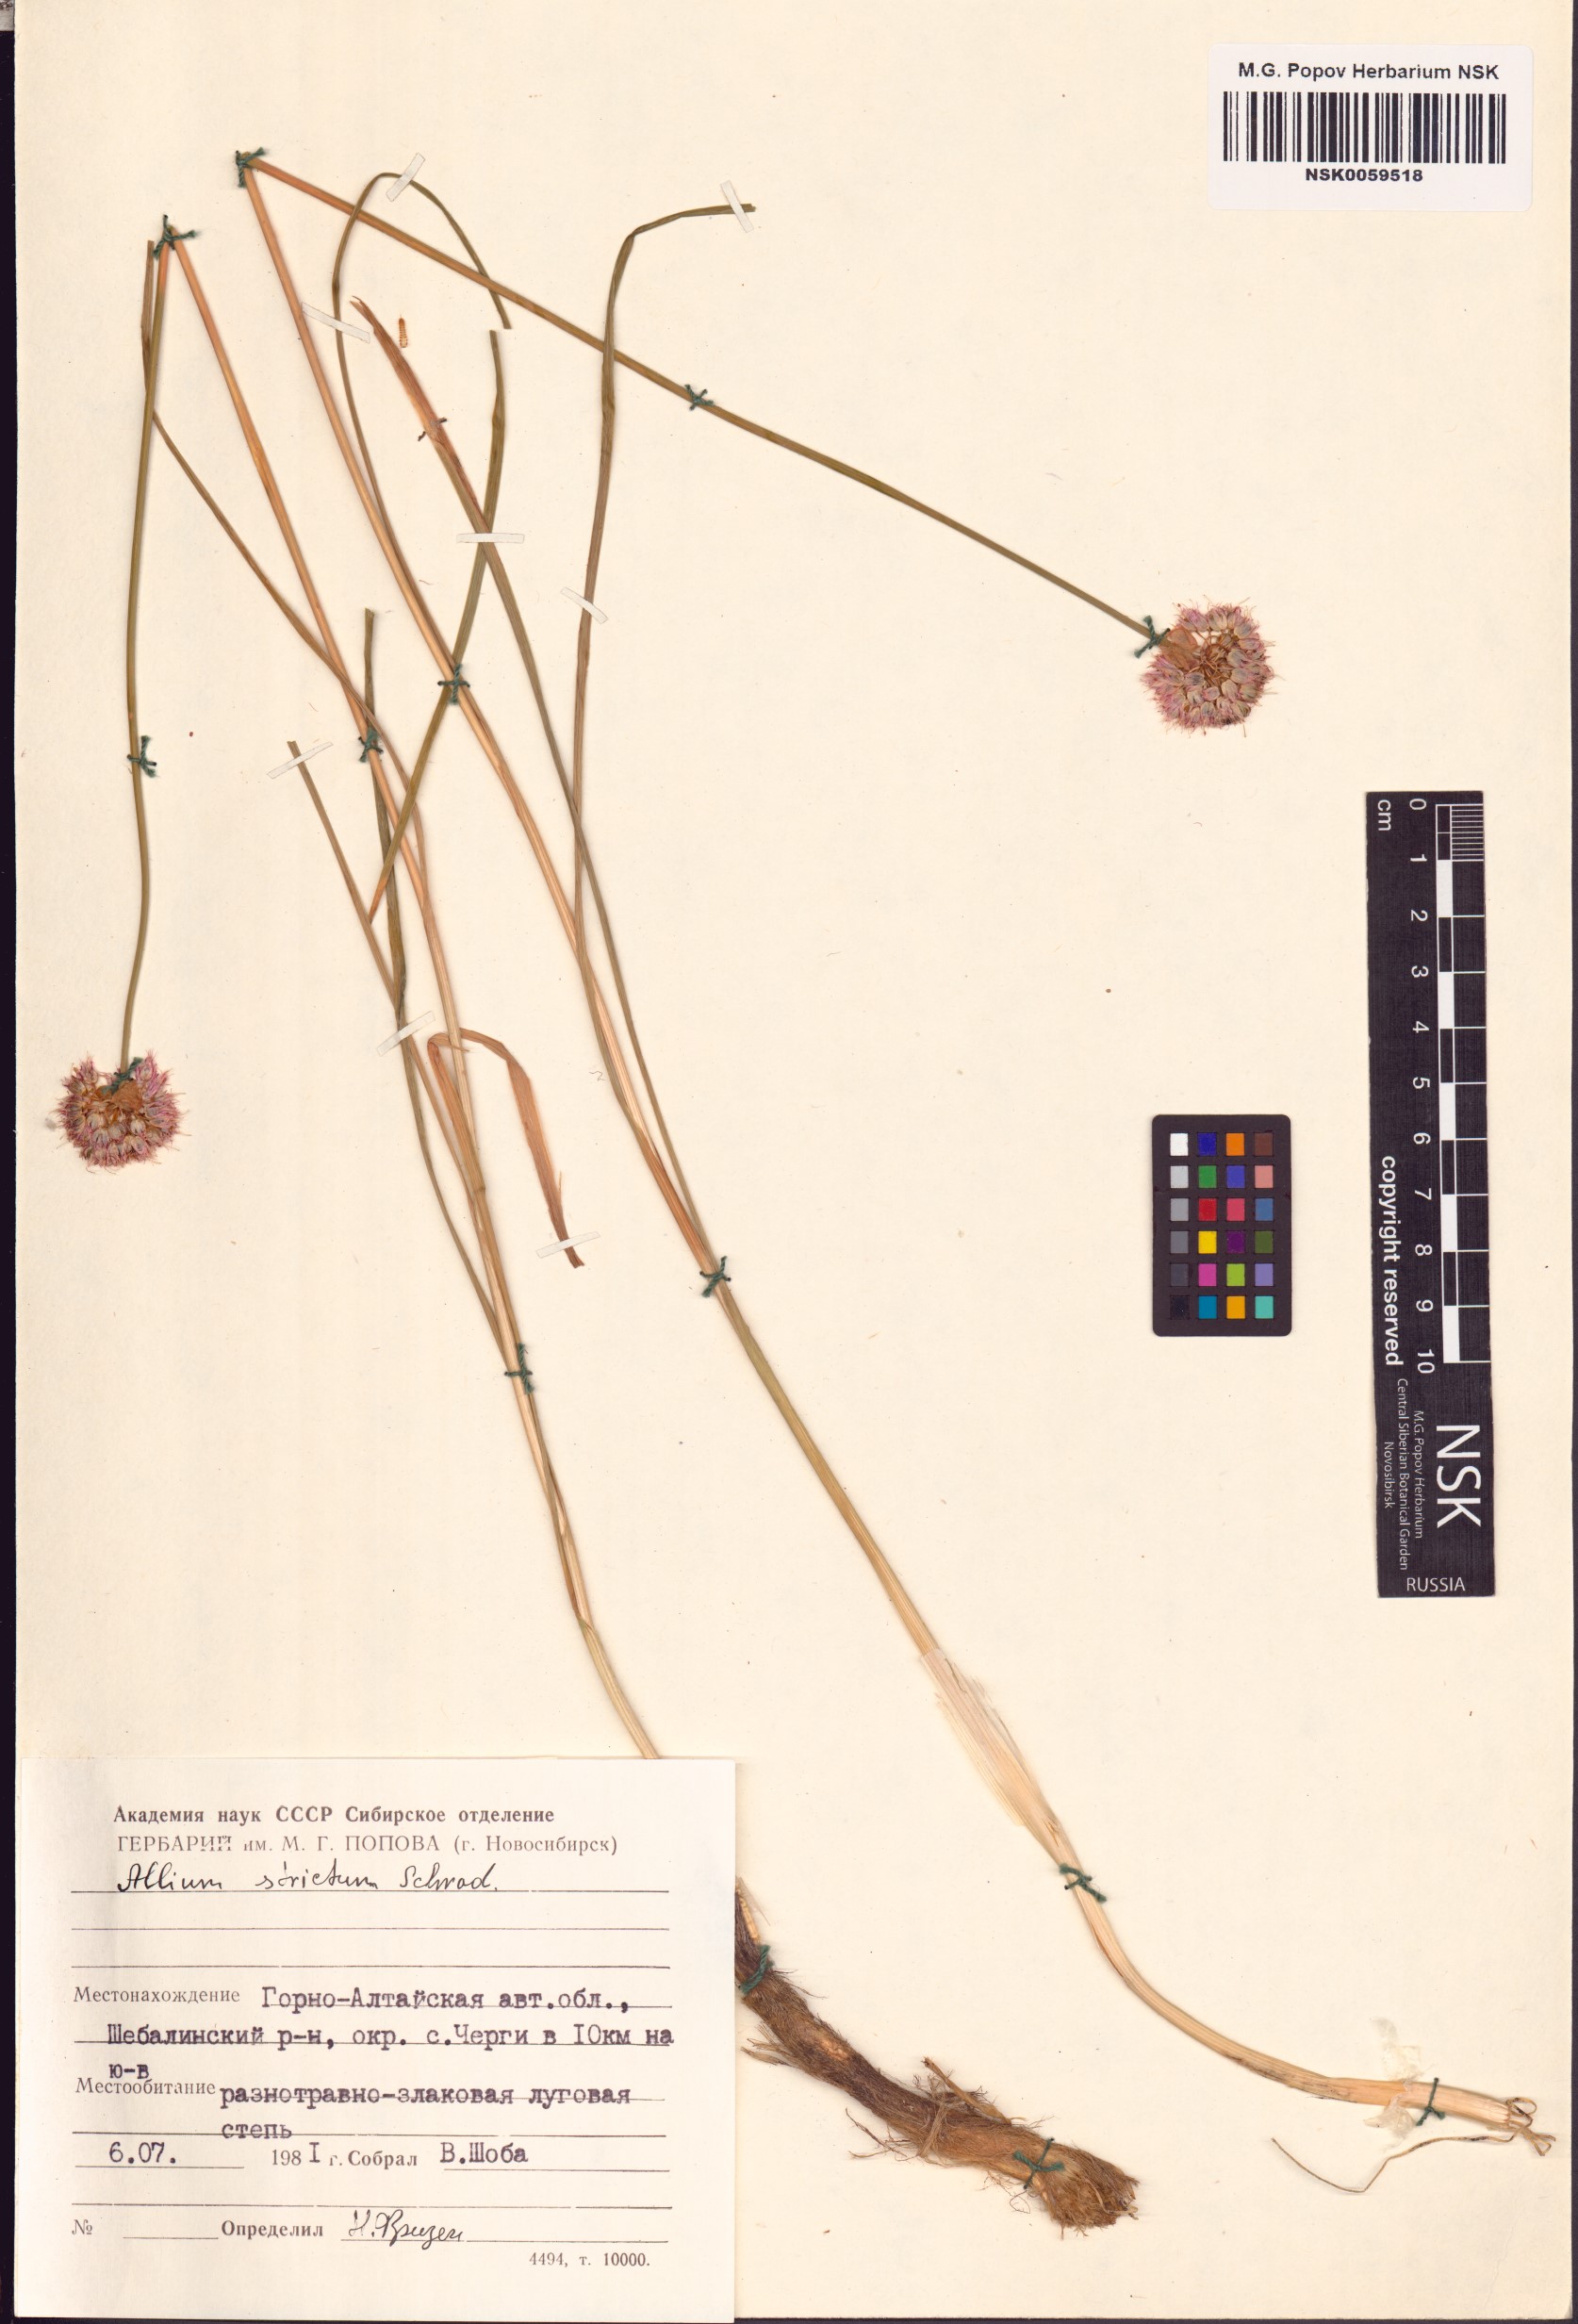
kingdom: Plantae
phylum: Tracheophyta
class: Liliopsida
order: Asparagales
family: Amaryllidaceae
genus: Allium
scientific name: Allium strictum
